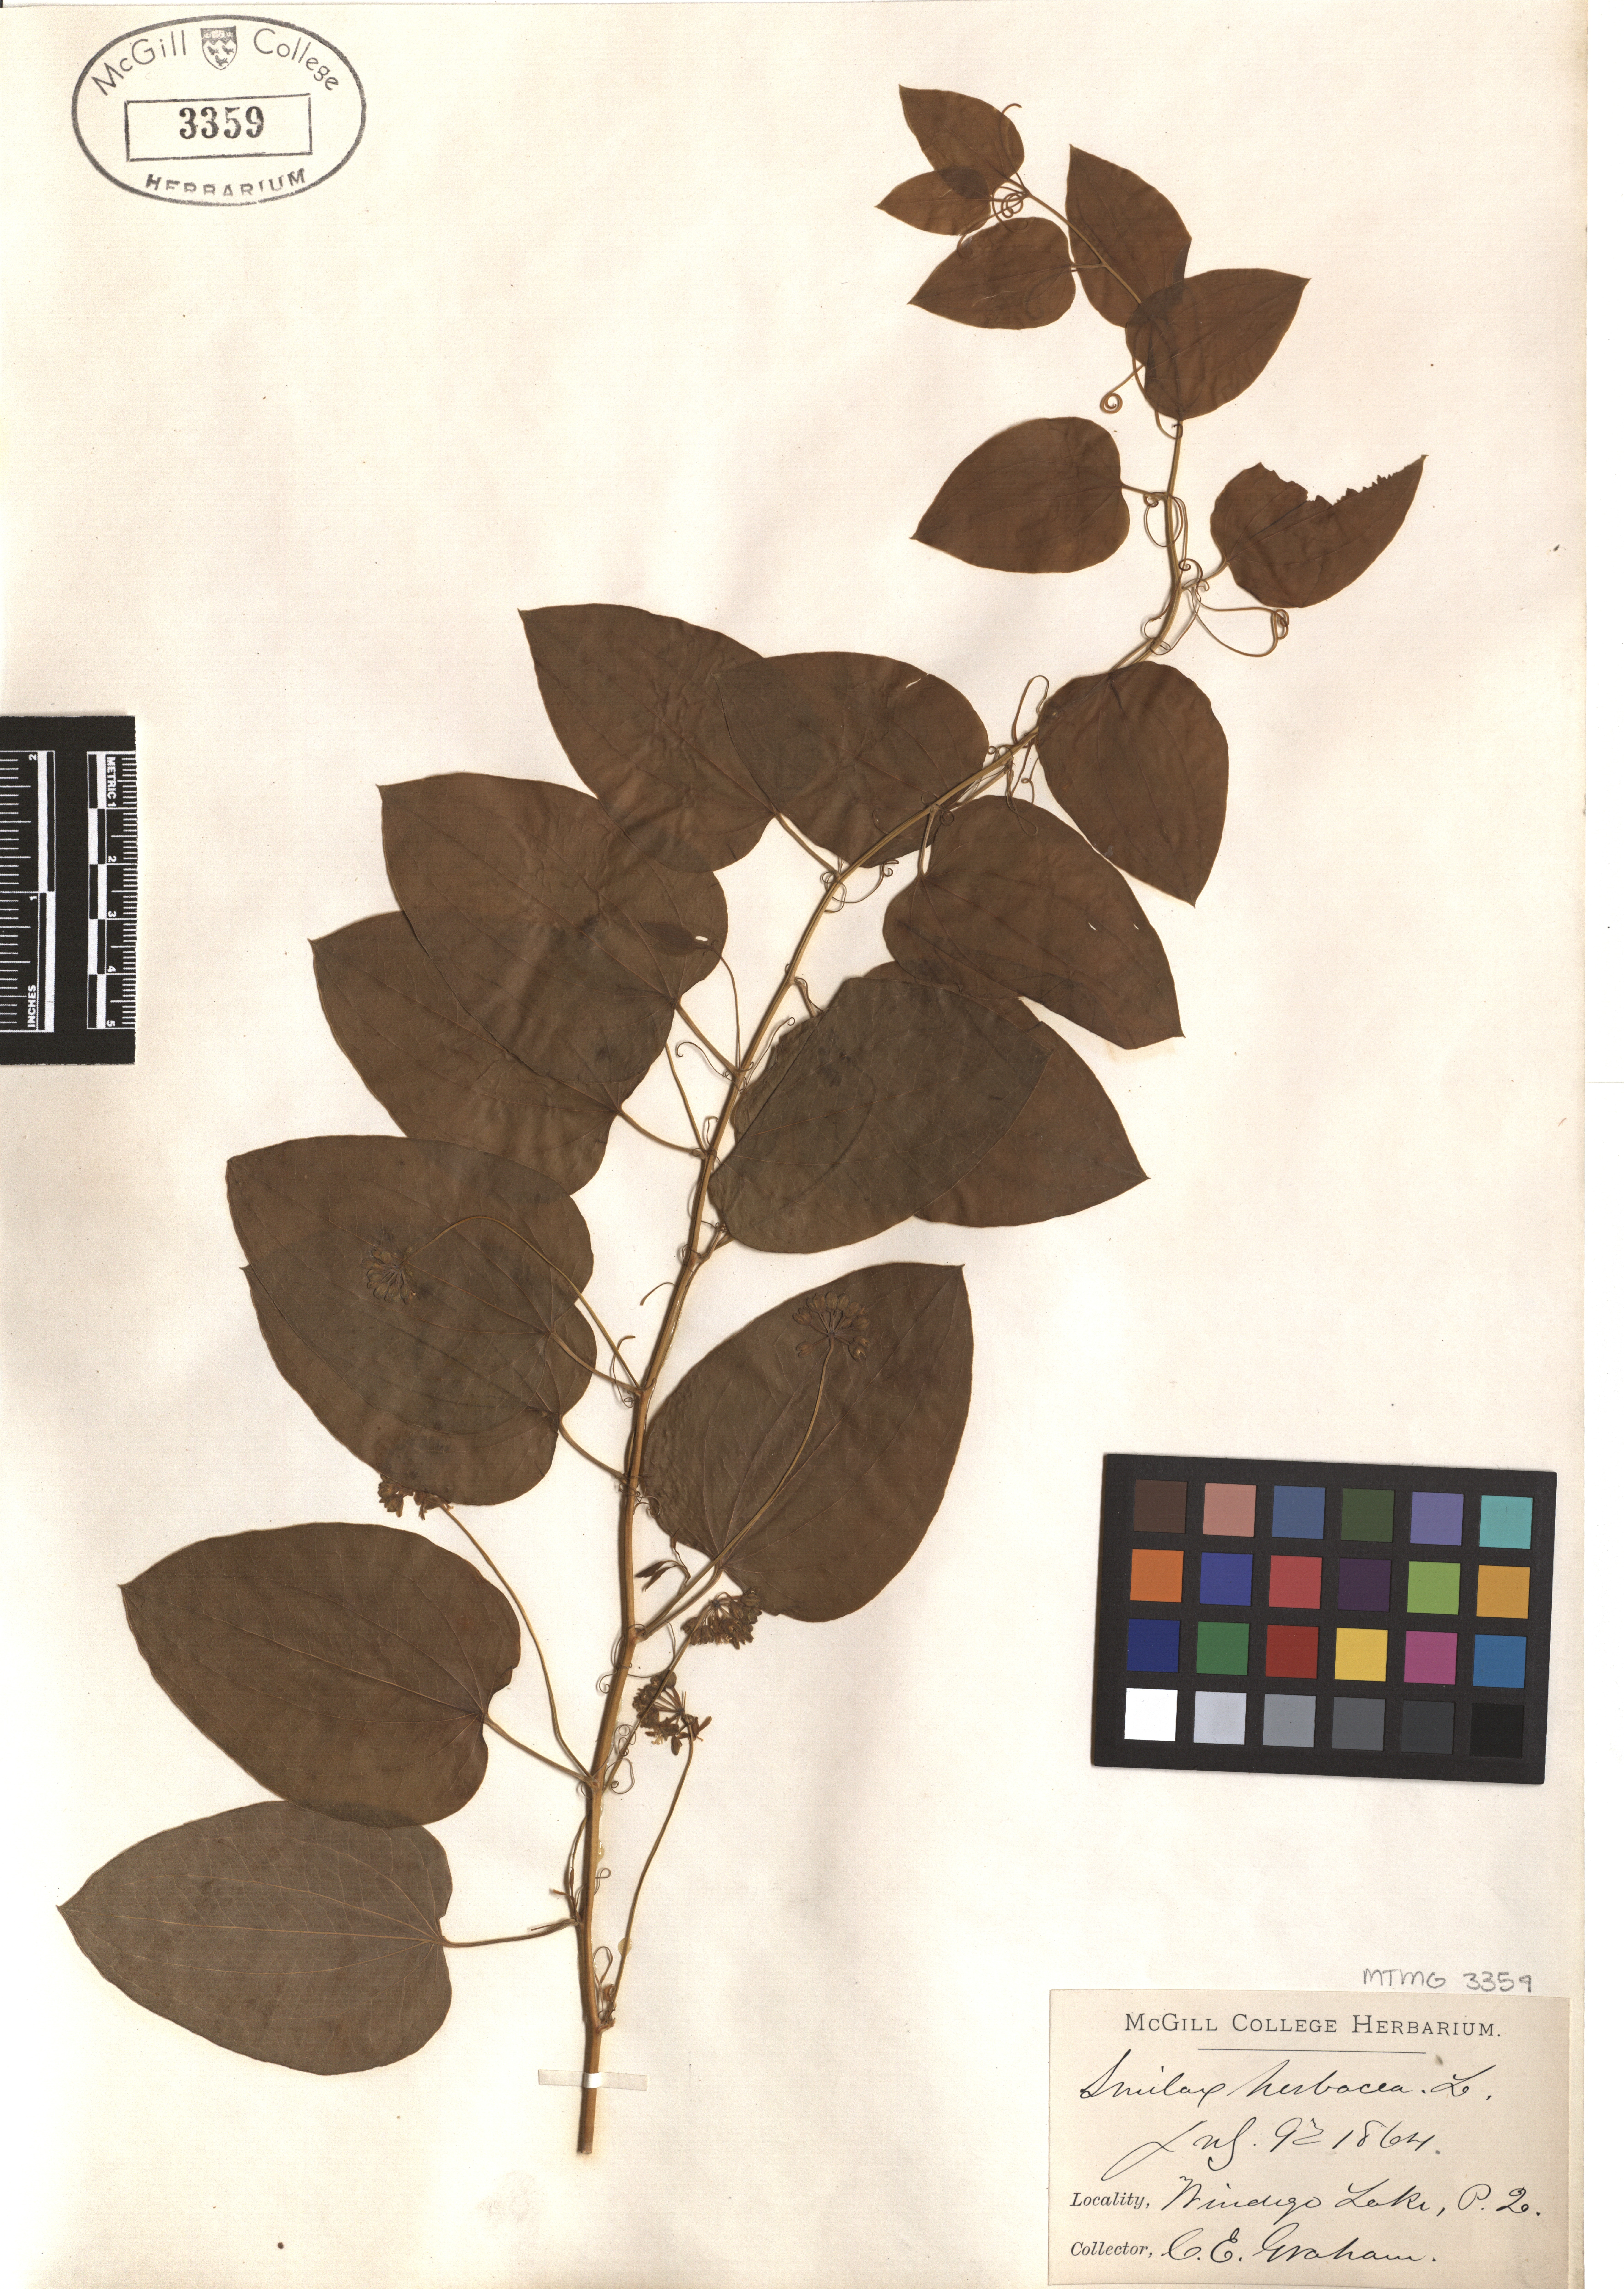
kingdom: Plantae
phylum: Tracheophyta
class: Liliopsida
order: Liliales
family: Smilacaceae
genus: Smilax
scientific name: Smilax herbacea
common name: Jacob's-ladder
